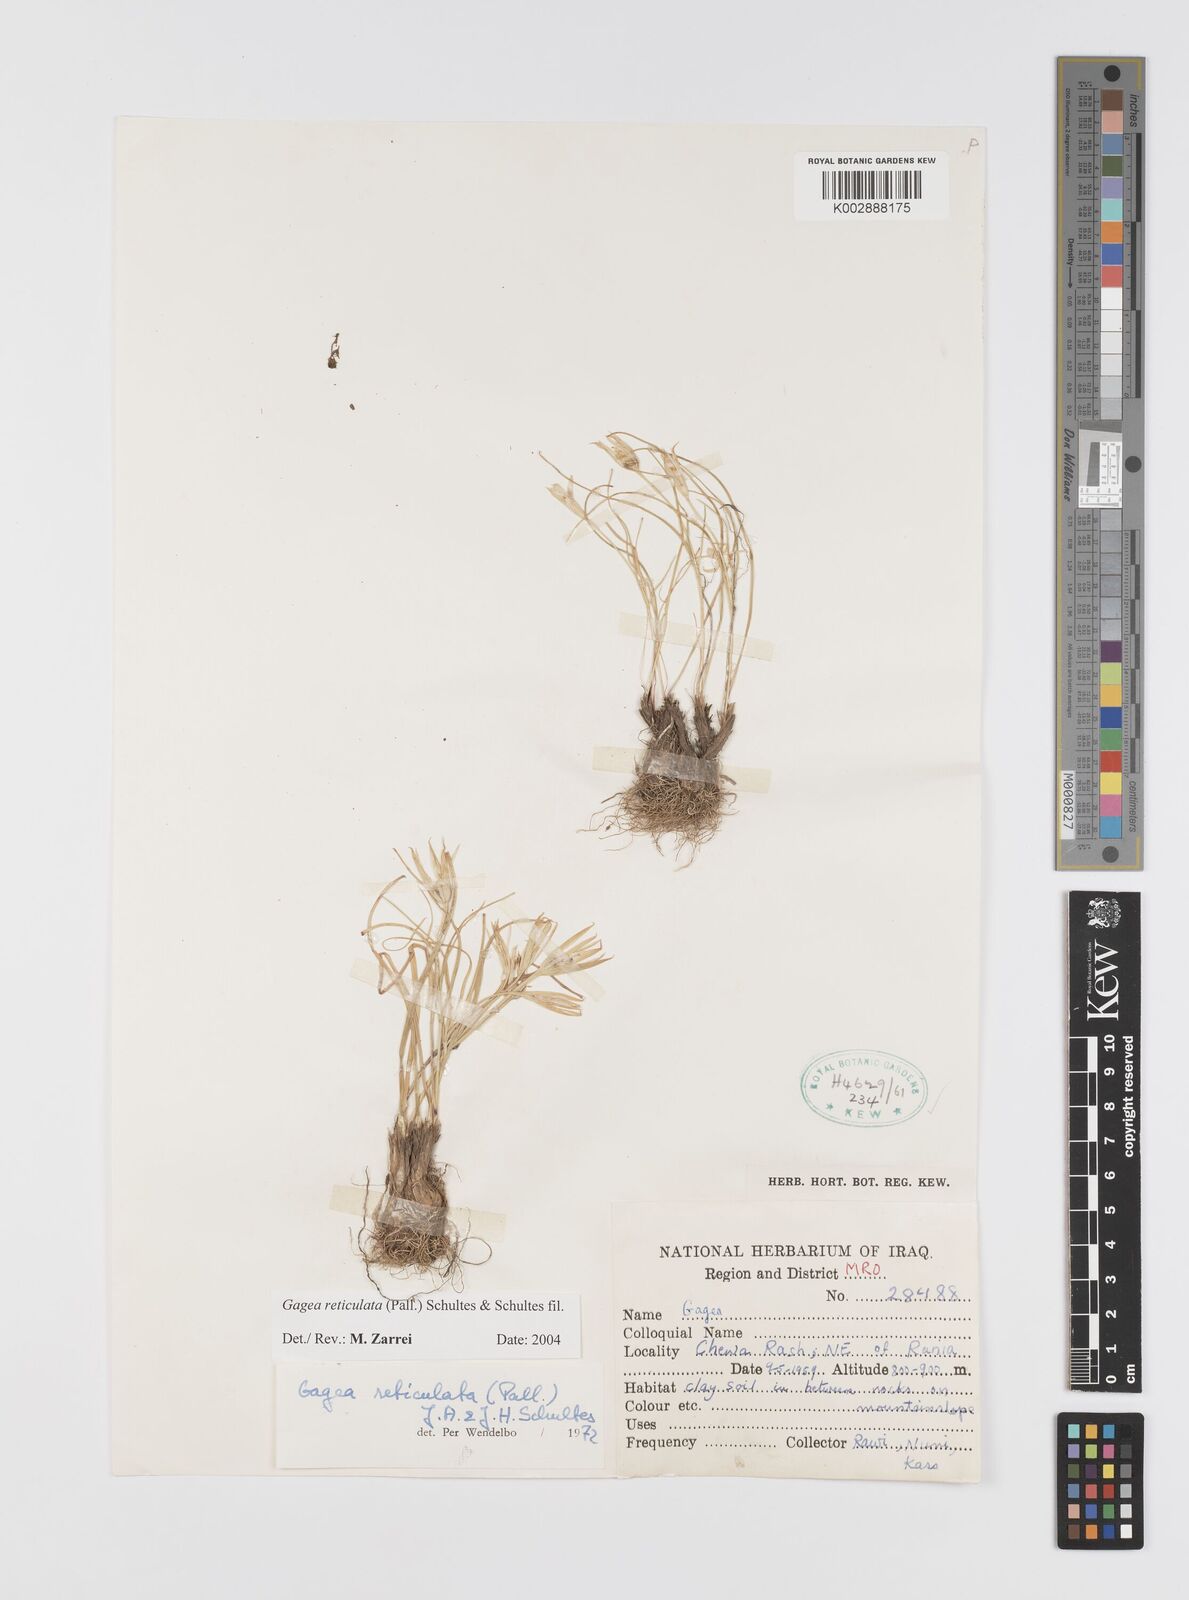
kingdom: Plantae
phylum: Tracheophyta
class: Liliopsida
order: Liliales
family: Liliaceae
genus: Gagea
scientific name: Gagea reticulata
